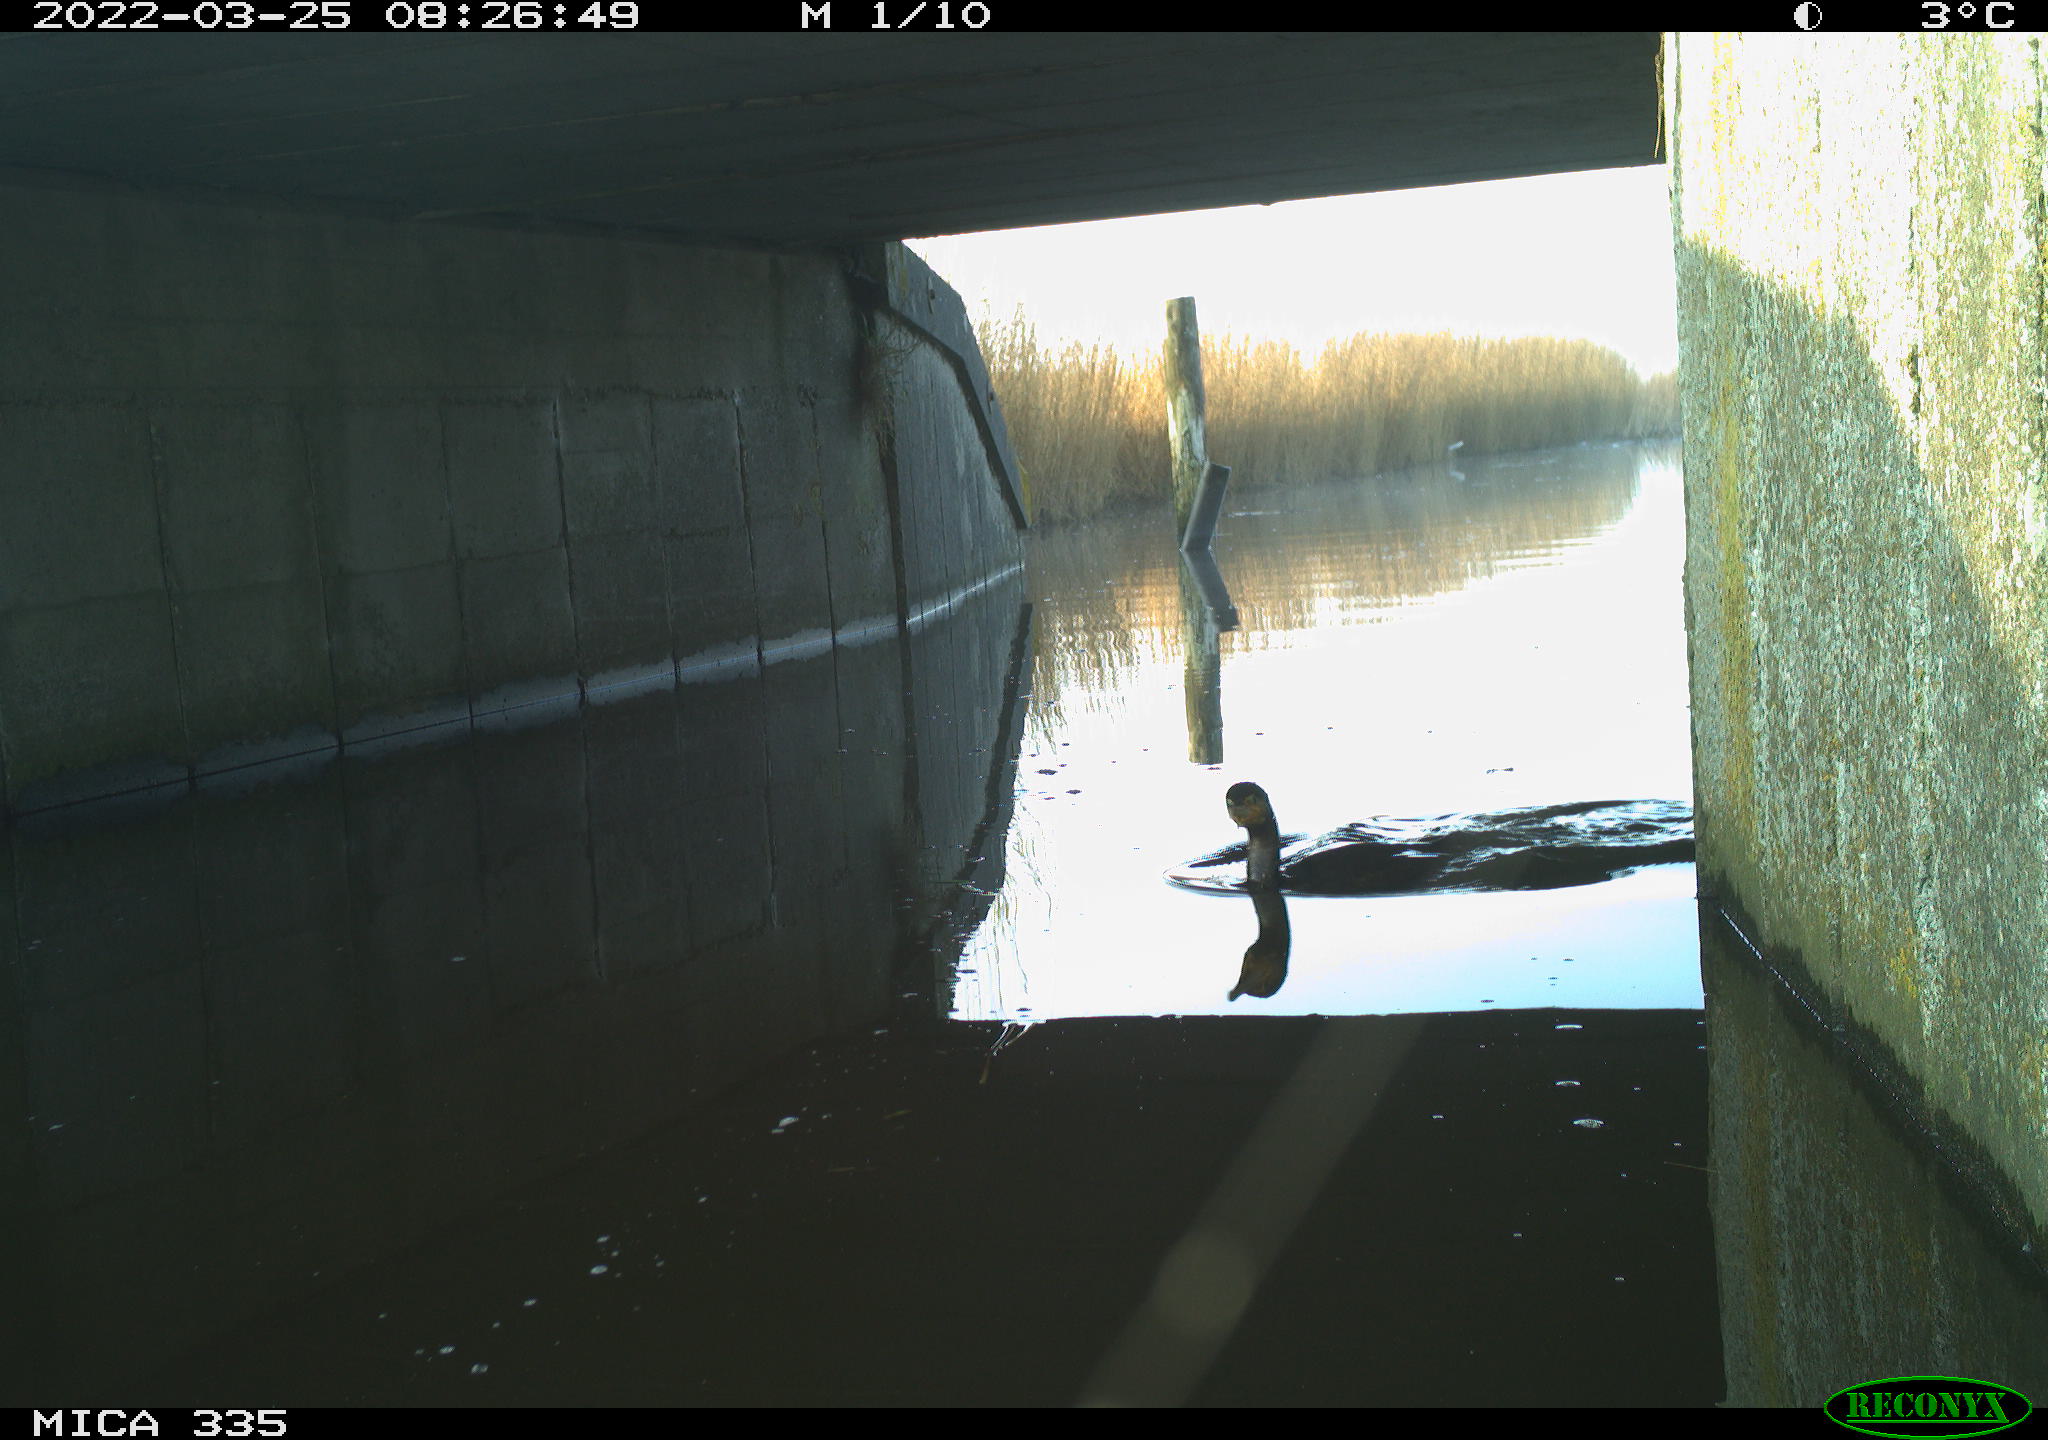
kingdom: Animalia
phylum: Chordata
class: Aves
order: Suliformes
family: Phalacrocoracidae
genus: Phalacrocorax
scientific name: Phalacrocorax carbo
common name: Great cormorant
